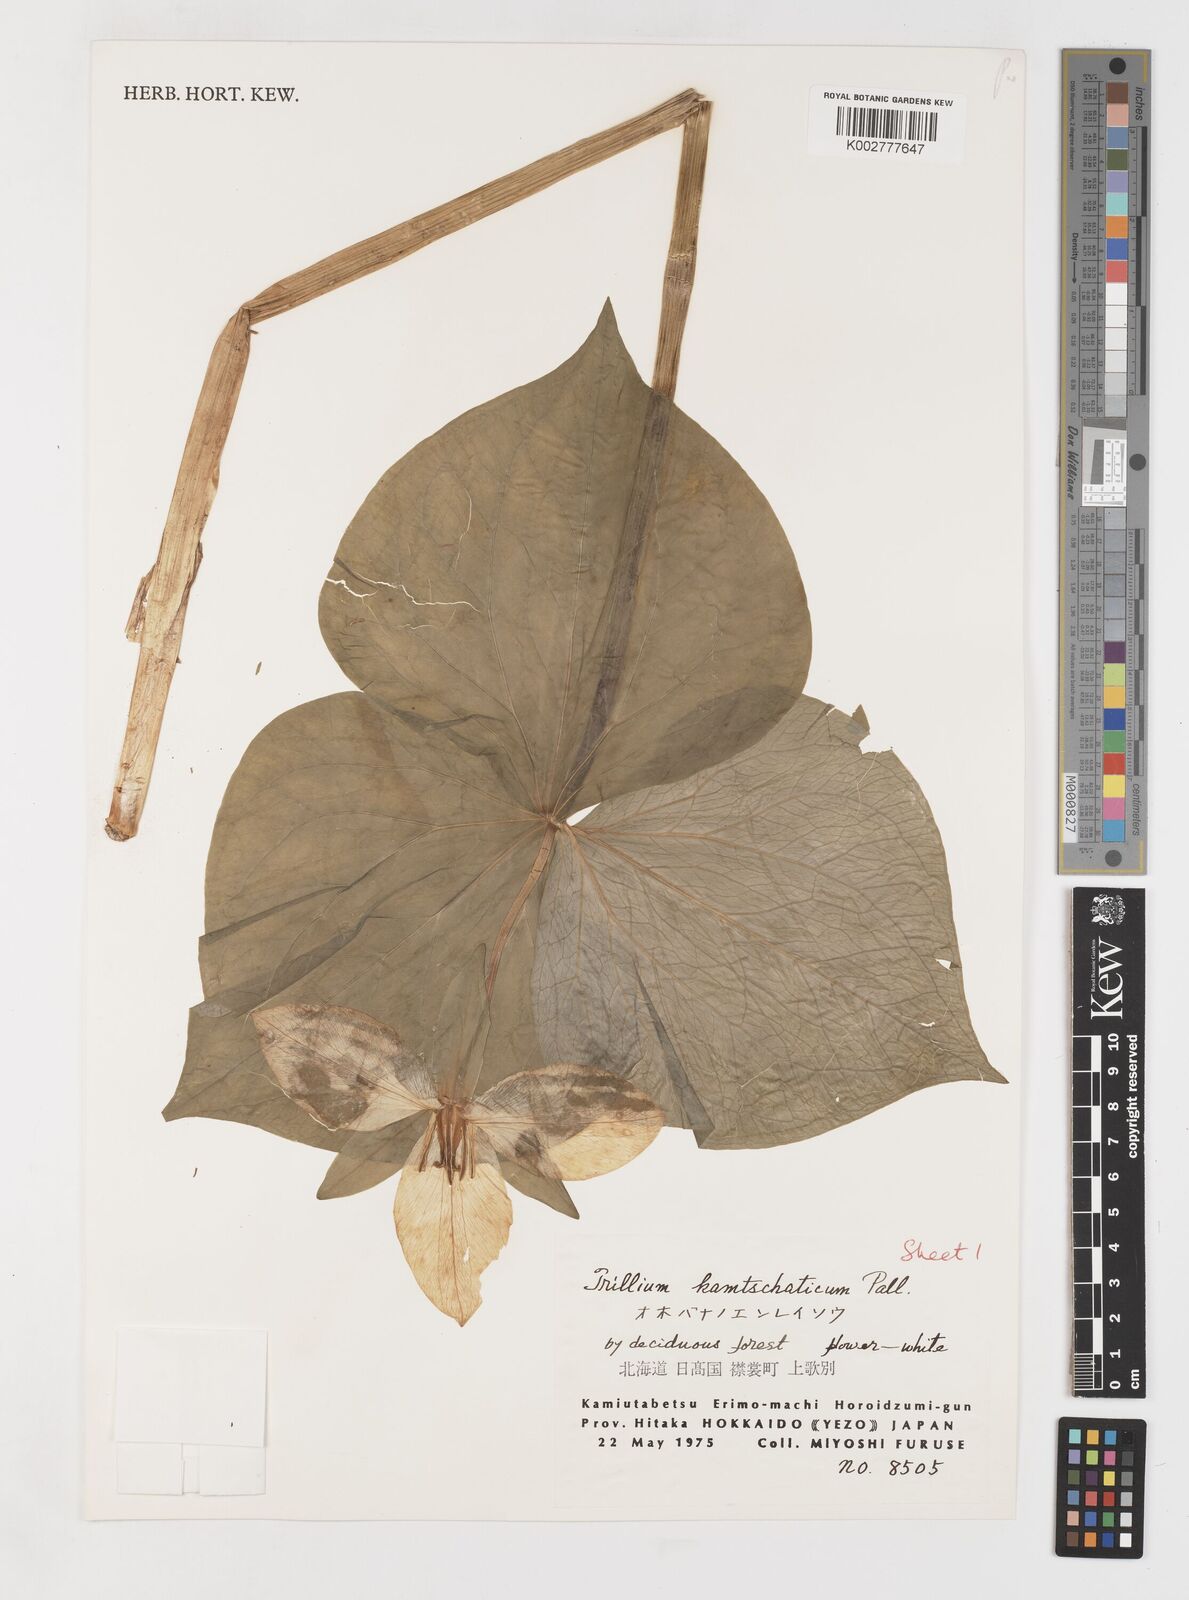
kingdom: Plantae
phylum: Tracheophyta
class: Liliopsida
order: Liliales
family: Melanthiaceae
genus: Trillium
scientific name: Trillium camschatcense
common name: Kamchatka trillium
